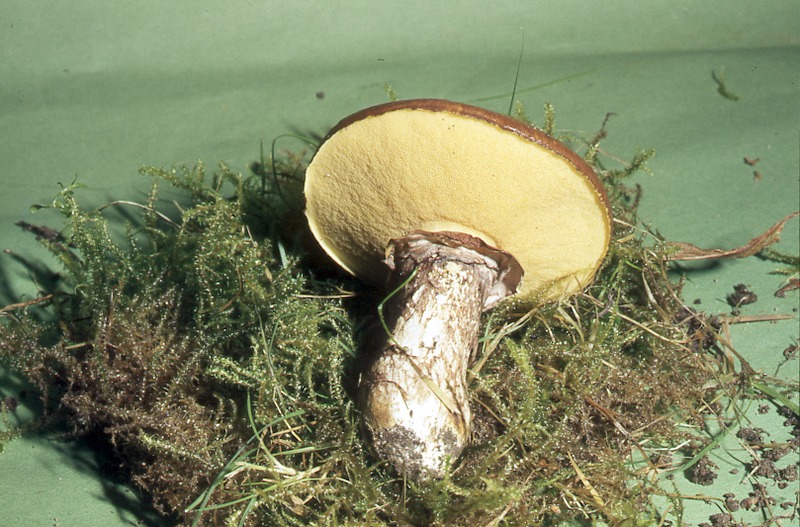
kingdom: Fungi
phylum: Basidiomycota
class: Agaricomycetes
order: Boletales
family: Suillaceae
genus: Suillus
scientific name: Suillus grevillei
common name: Larch bolete
